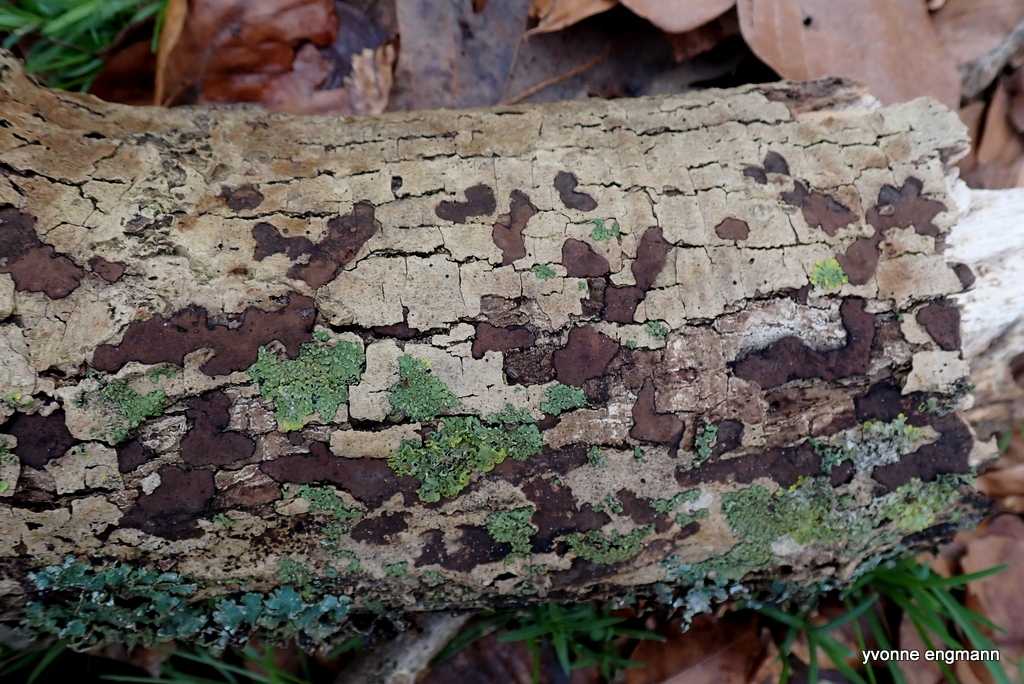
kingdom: Fungi
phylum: Ascomycota
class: Sordariomycetes
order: Xylariales
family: Hypoxylaceae
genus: Hypoxylon
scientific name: Hypoxylon petriniae
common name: nedsænket kulbær
